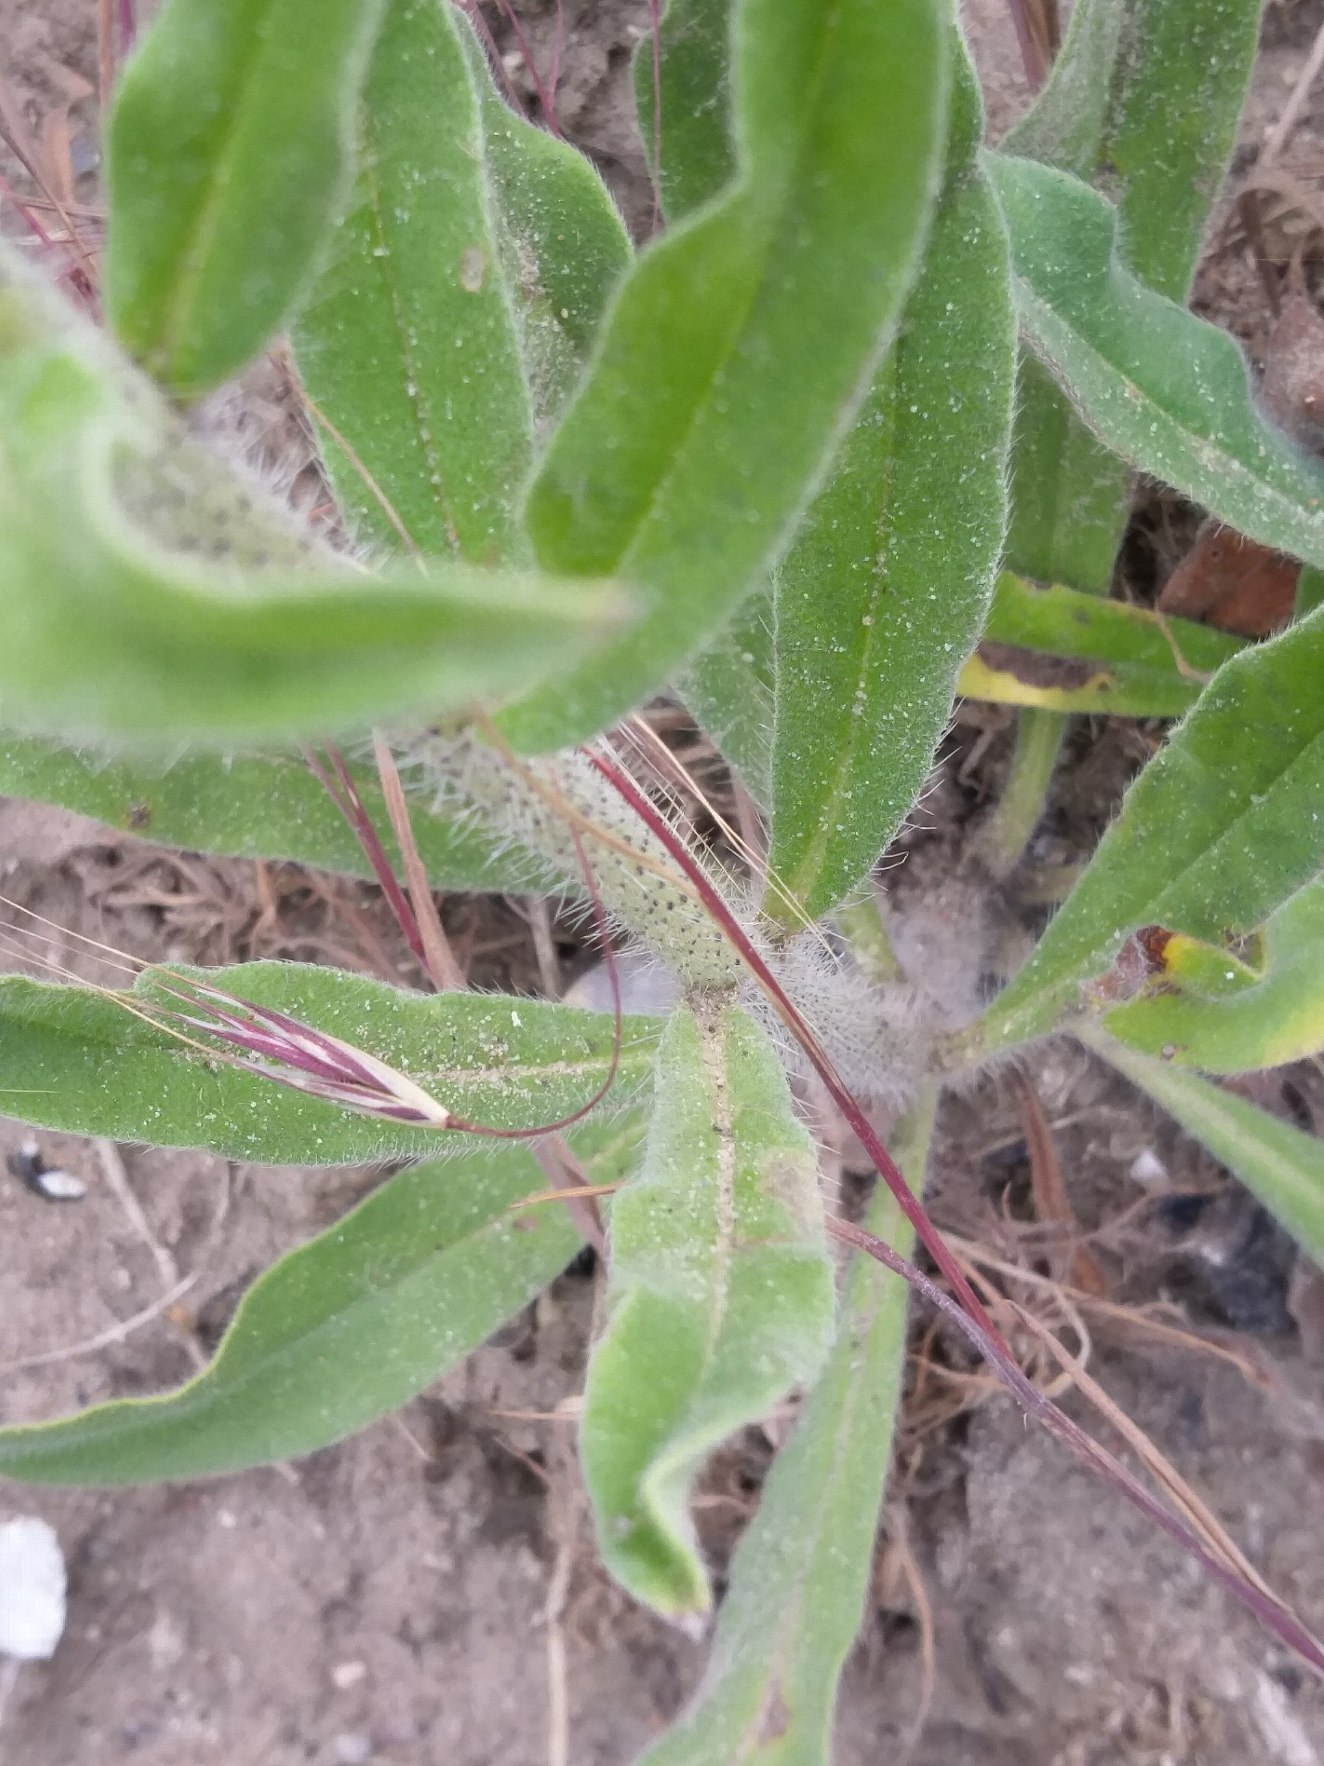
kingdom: Plantae
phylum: Tracheophyta
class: Magnoliopsida
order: Boraginales
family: Boraginaceae
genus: Echium
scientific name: Echium vulgare
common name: Slangehoved
